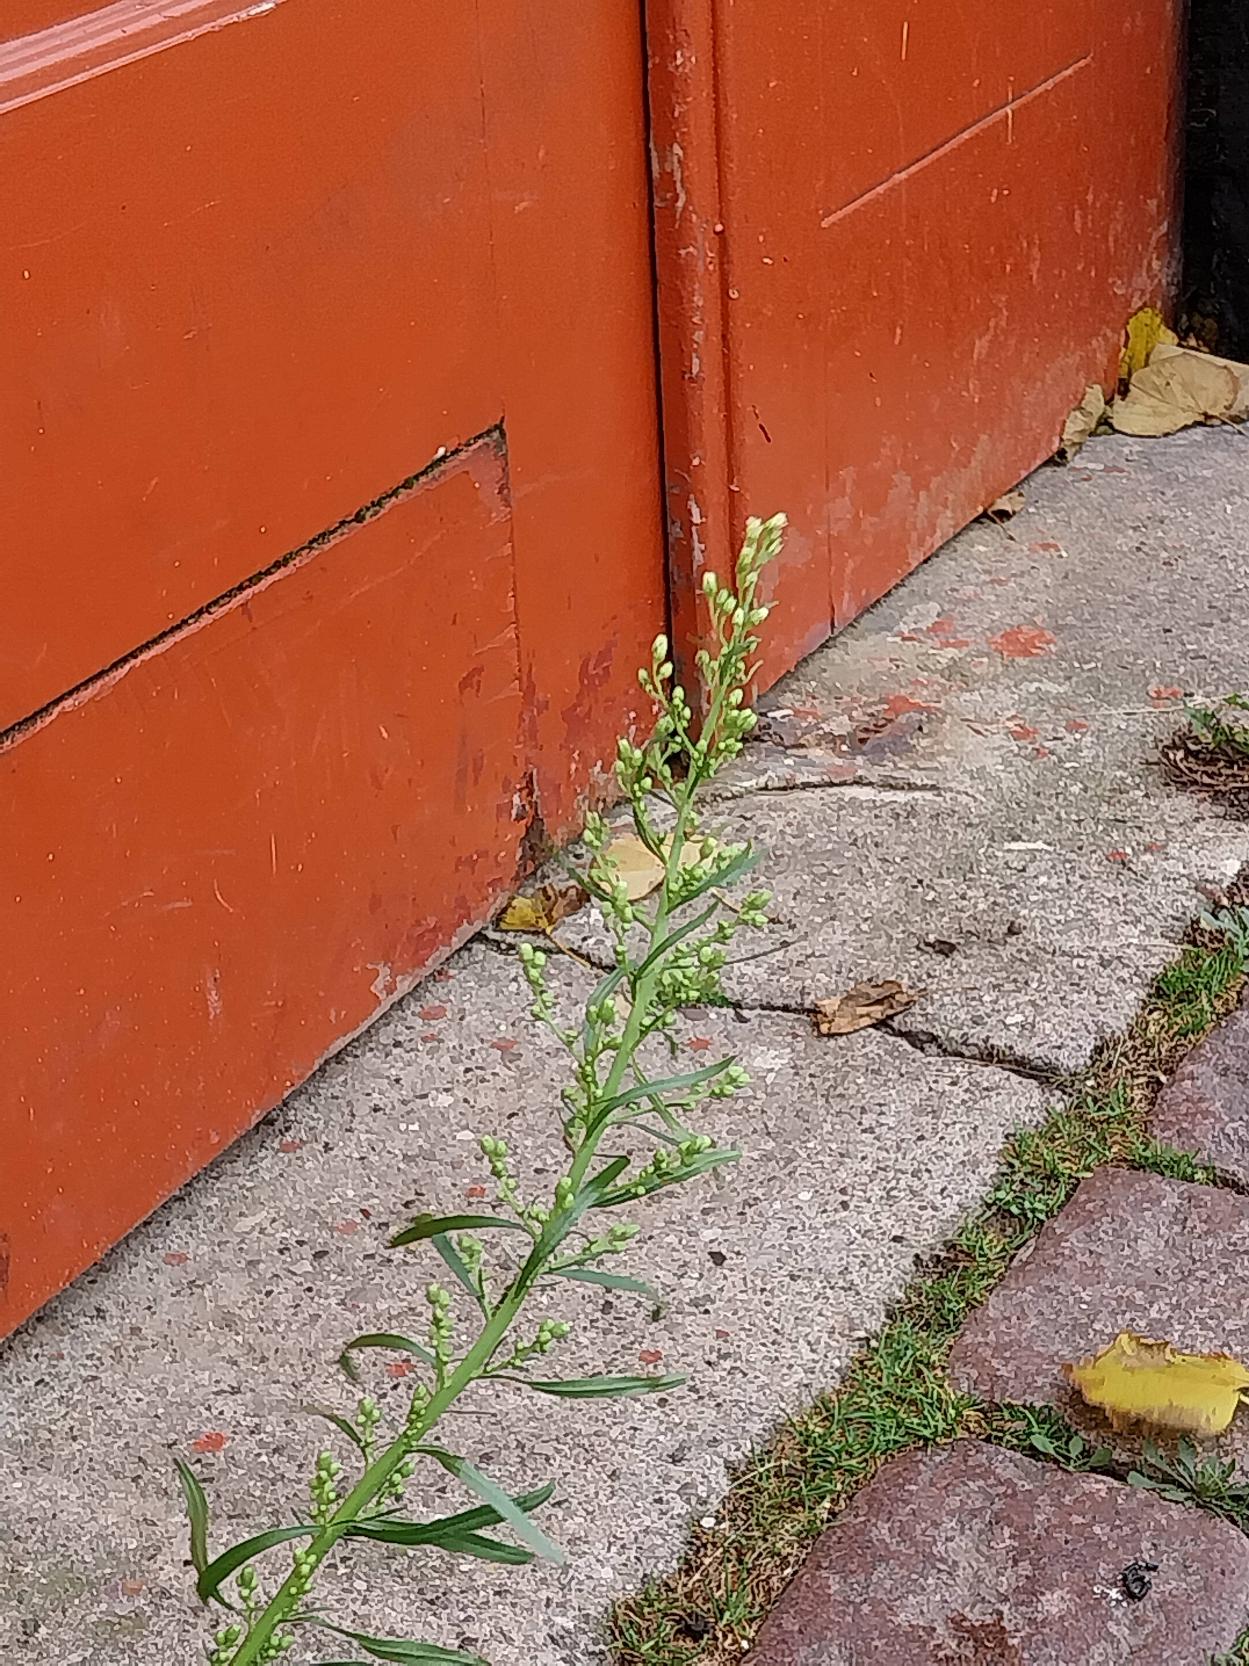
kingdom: Plantae
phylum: Tracheophyta
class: Magnoliopsida
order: Asterales
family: Asteraceae
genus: Erigeron
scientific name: Erigeron canadensis
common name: Kanadisk bakkestjerne
